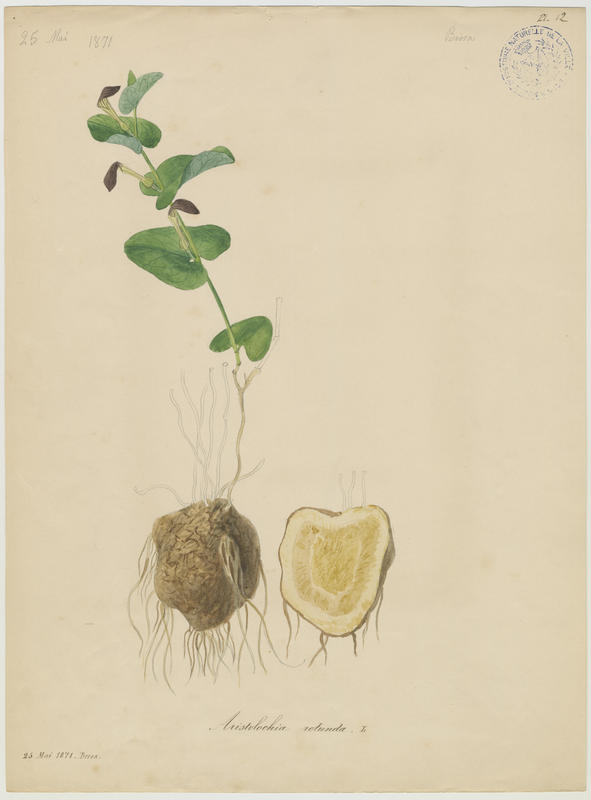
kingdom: Plantae
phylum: Tracheophyta
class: Magnoliopsida
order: Piperales
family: Aristolochiaceae
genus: Aristolochia
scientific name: Aristolochia rotunda
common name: Smearwort
